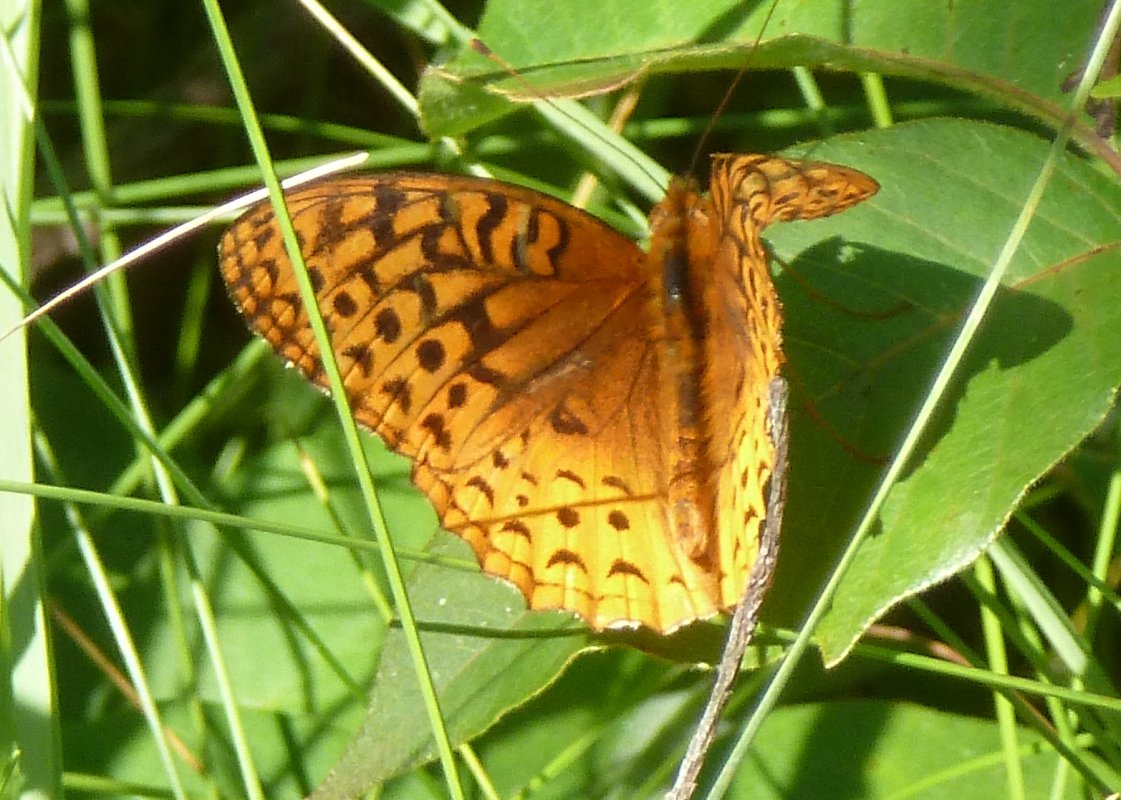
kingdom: Animalia
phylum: Arthropoda
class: Insecta
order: Lepidoptera
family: Nymphalidae
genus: Speyeria
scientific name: Speyeria cybele
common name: Great Spangled Fritillary
